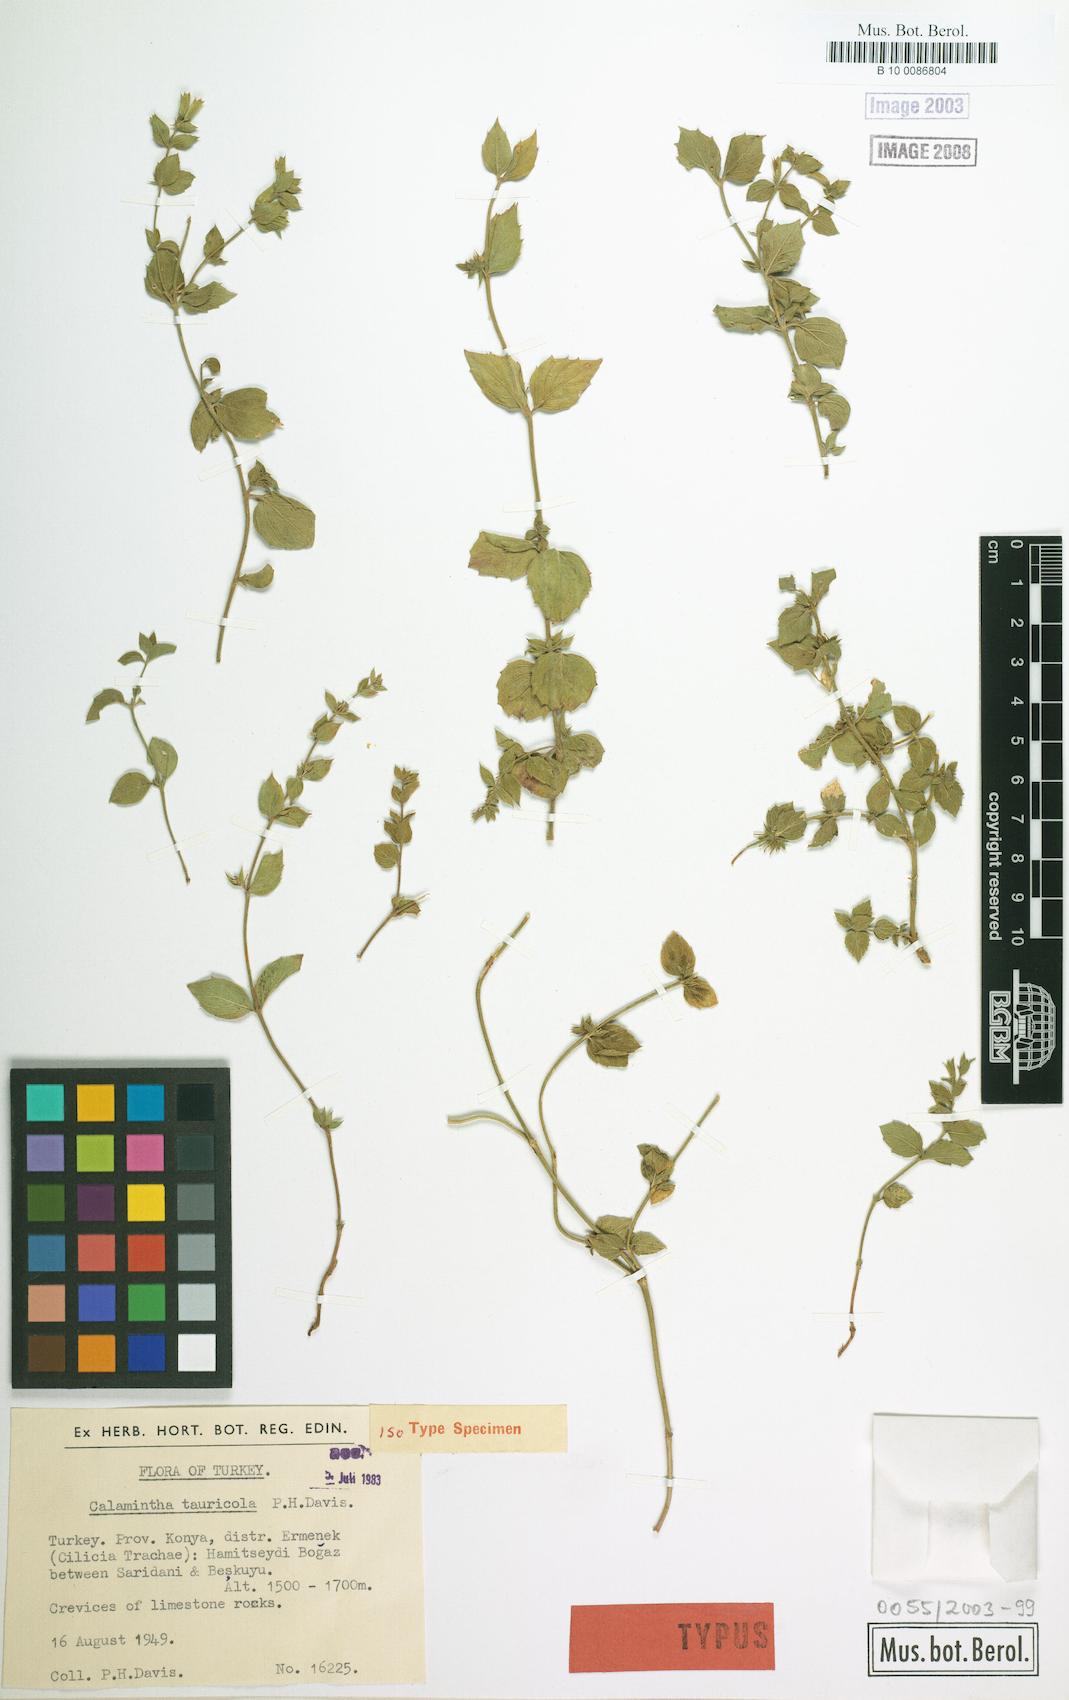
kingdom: Plantae
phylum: Tracheophyta
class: Magnoliopsida
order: Lamiales
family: Lamiaceae
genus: Clinopodium
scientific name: Clinopodium tauricola
